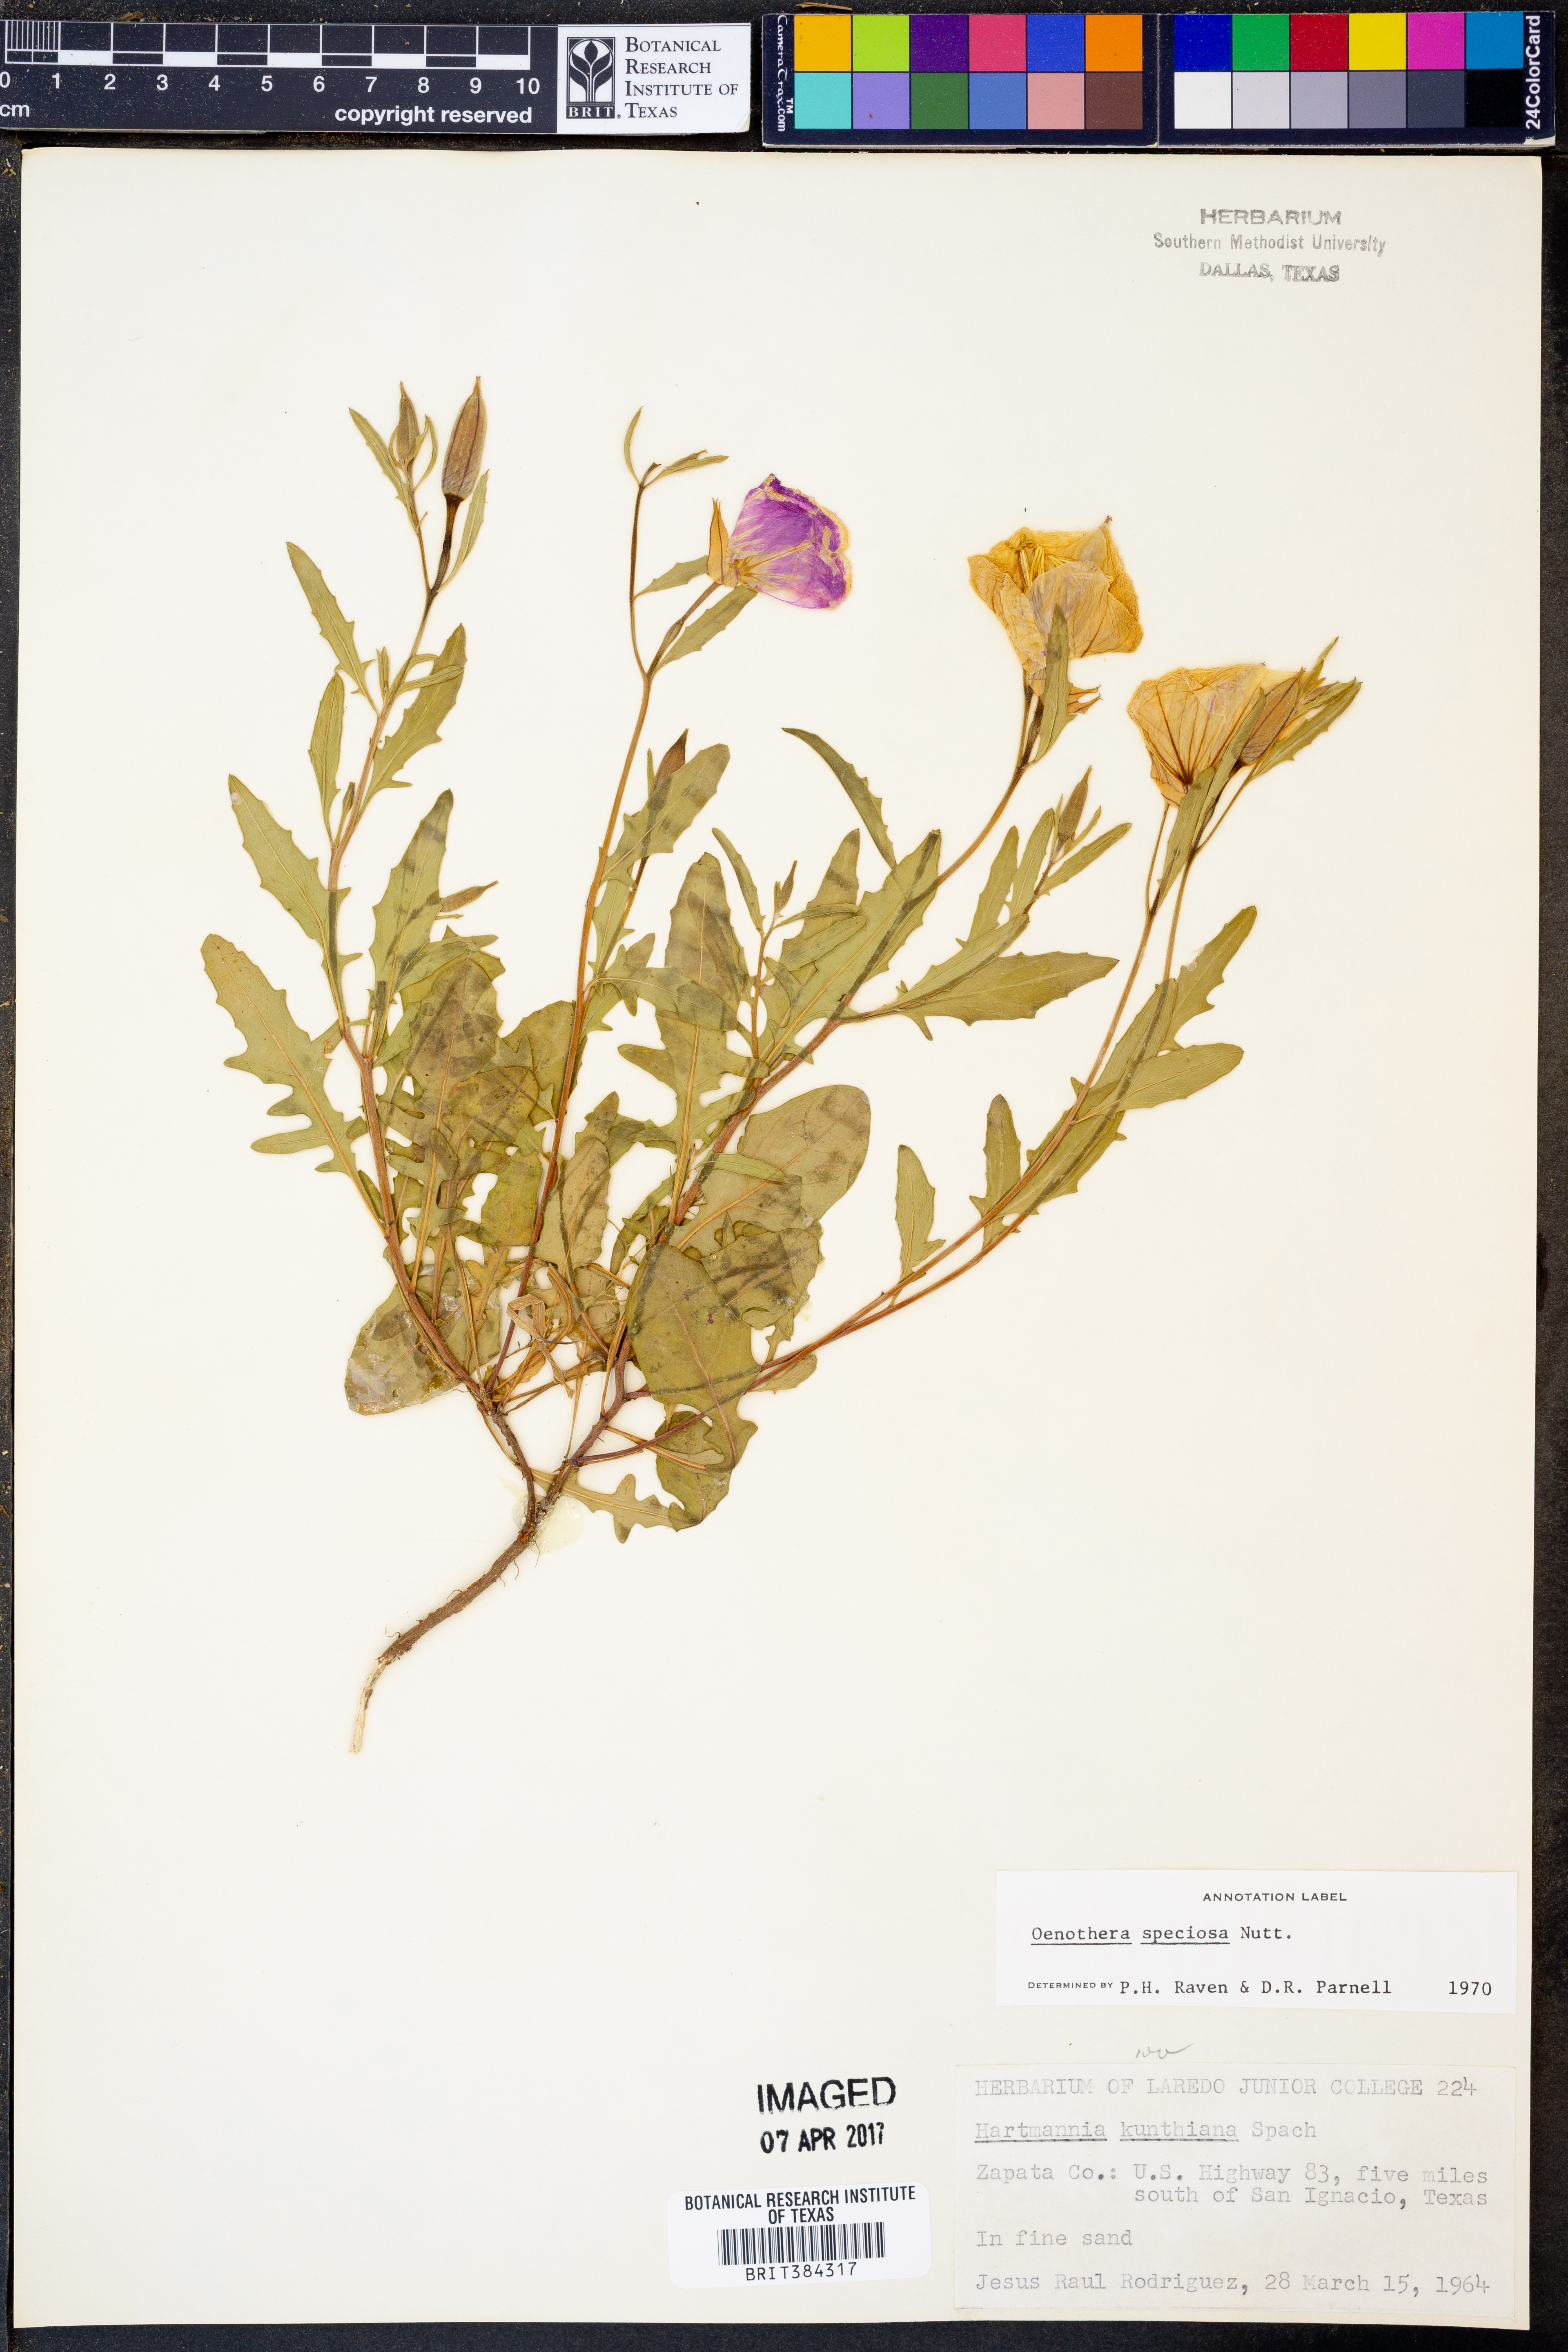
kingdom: Plantae
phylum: Tracheophyta
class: Magnoliopsida
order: Myrtales
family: Onagraceae
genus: Oenothera
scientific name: Oenothera speciosa
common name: White evening-primrose
